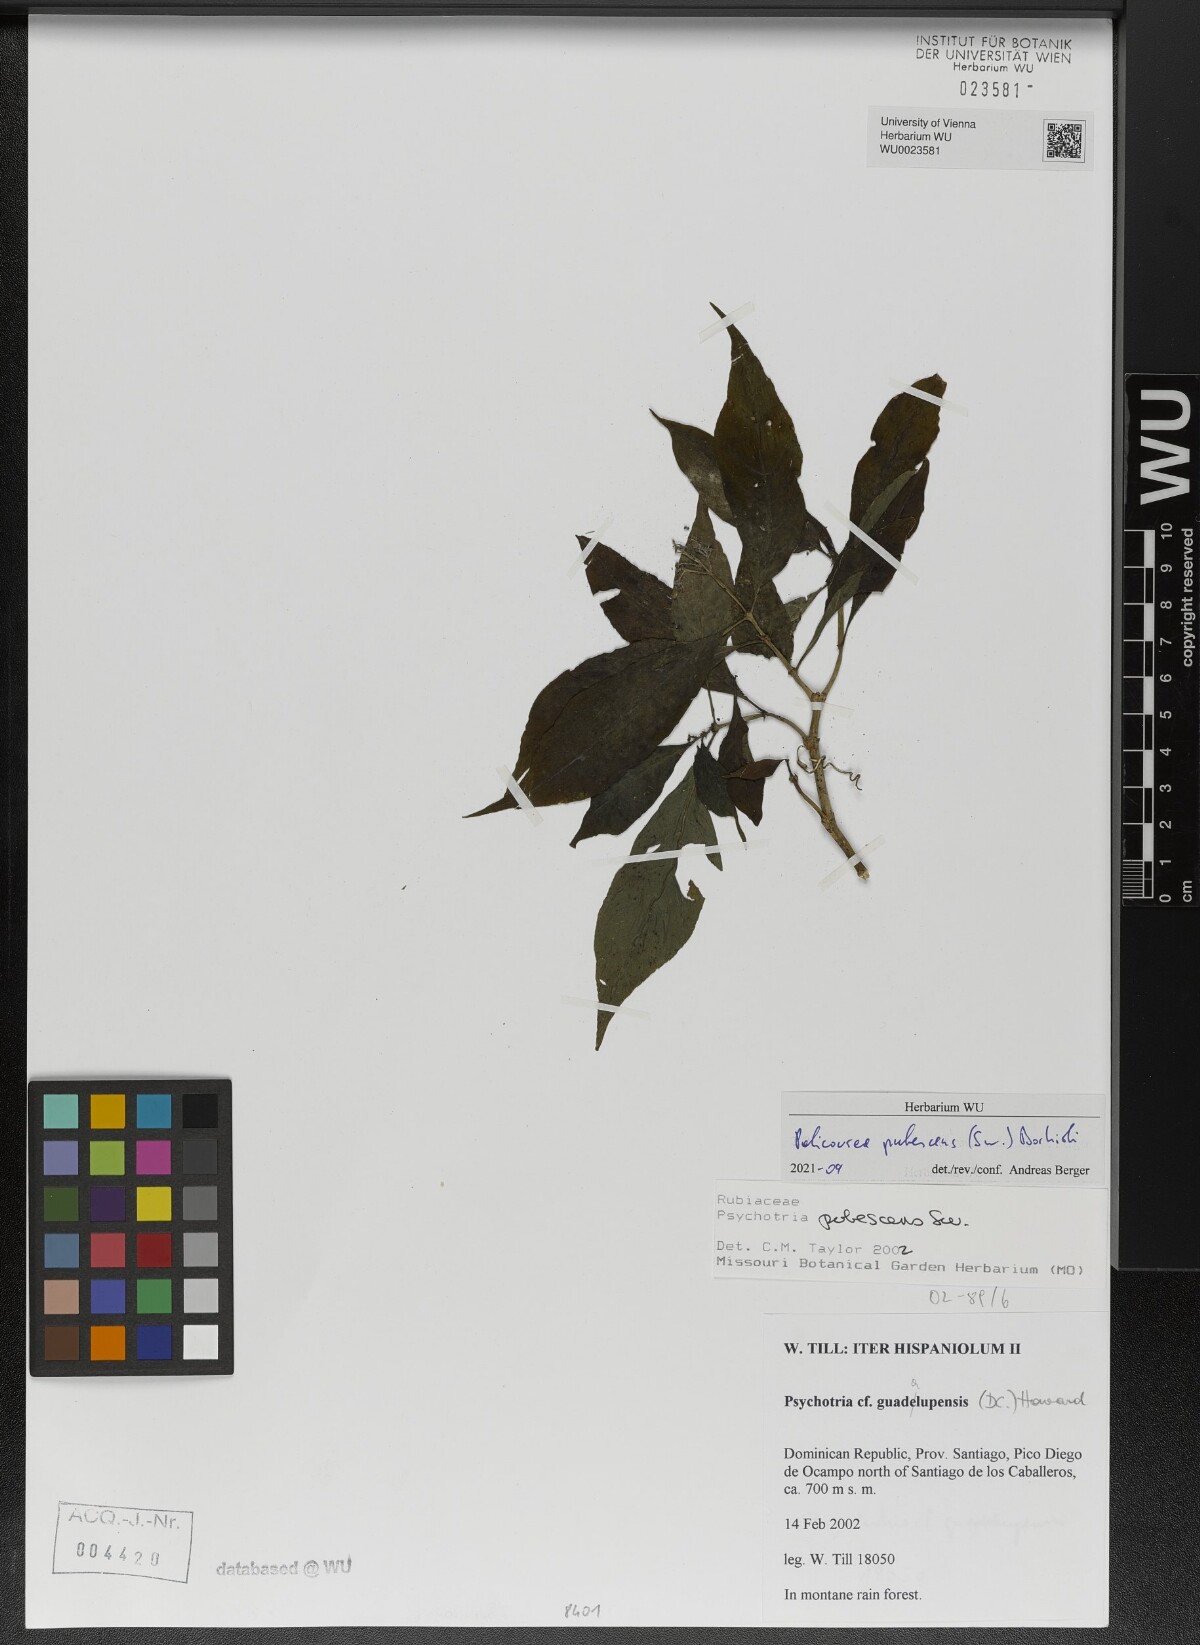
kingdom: Plantae
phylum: Tracheophyta
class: Magnoliopsida
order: Gentianales
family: Rubiaceae
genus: Palicourea
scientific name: Palicourea pubescens
